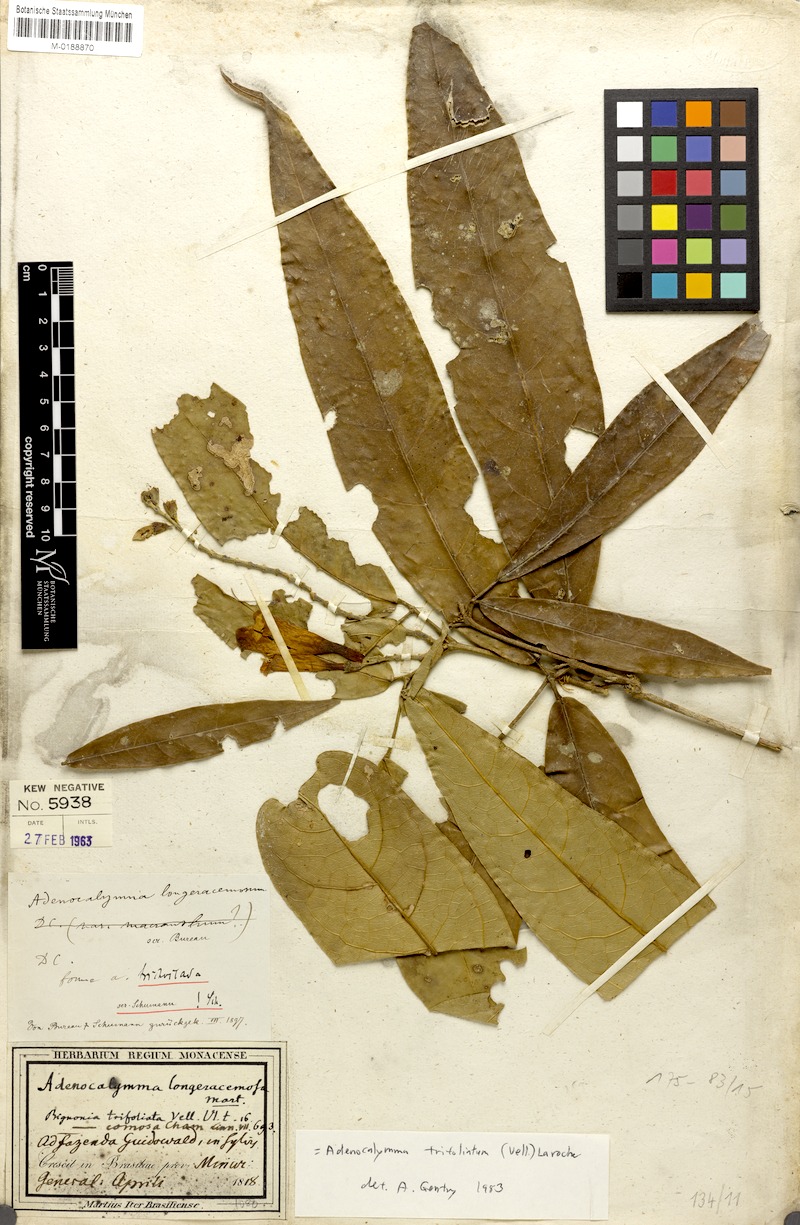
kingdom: Plantae
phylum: Tracheophyta
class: Magnoliopsida
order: Lamiales
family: Bignoniaceae
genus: Adenocalymma
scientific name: Adenocalymma trifoliatum
